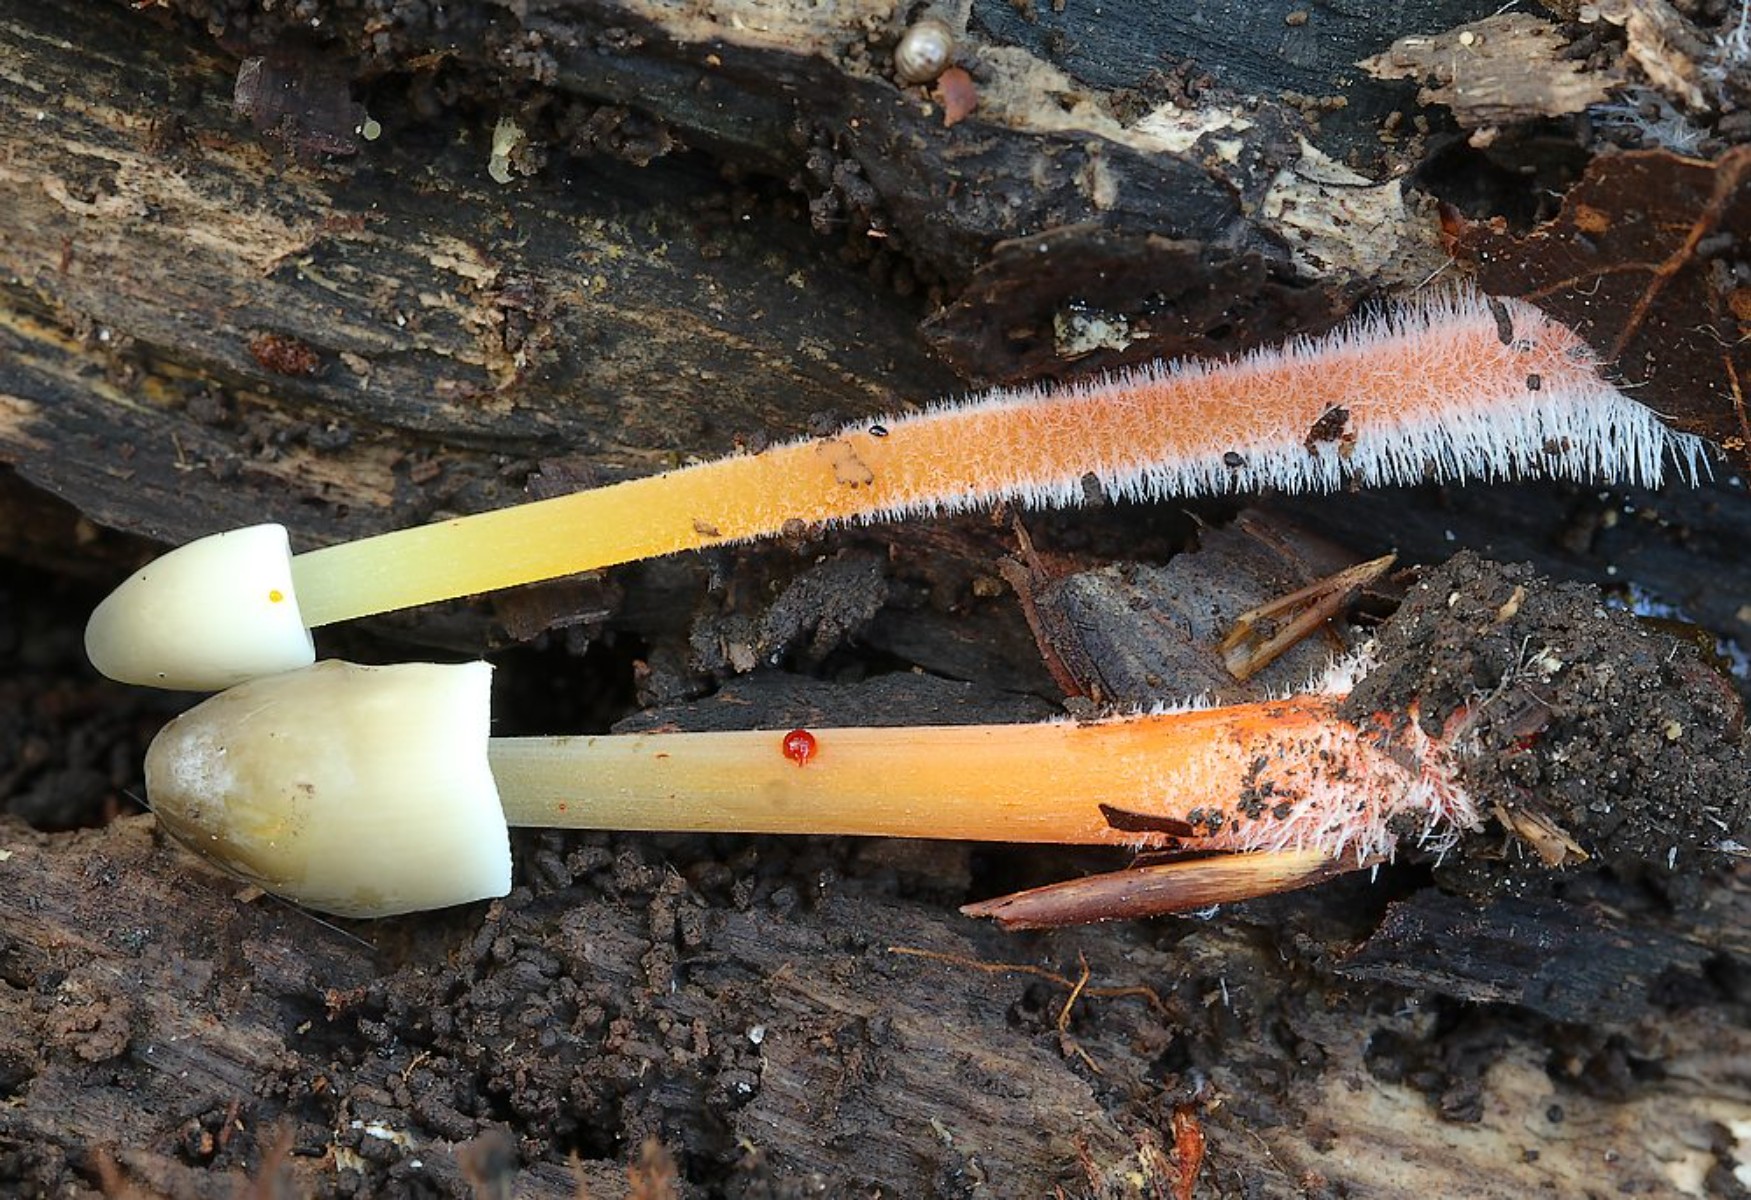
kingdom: Fungi
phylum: Basidiomycota
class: Agaricomycetes
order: Agaricales
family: Mycenaceae
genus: Mycena
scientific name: Mycena crocata
